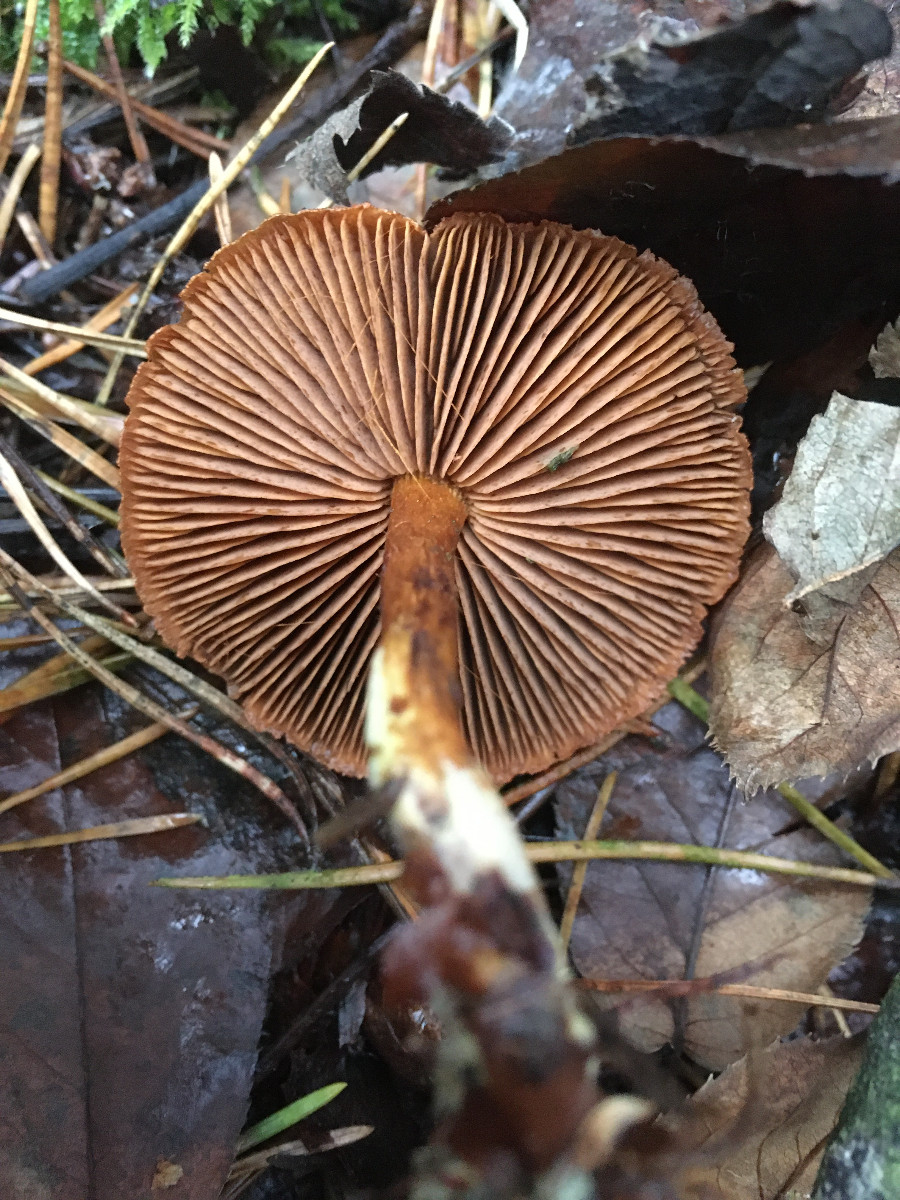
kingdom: Fungi
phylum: Basidiomycota
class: Agaricomycetes
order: Agaricales
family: Cortinariaceae
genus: Cortinarius
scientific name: Cortinarius
